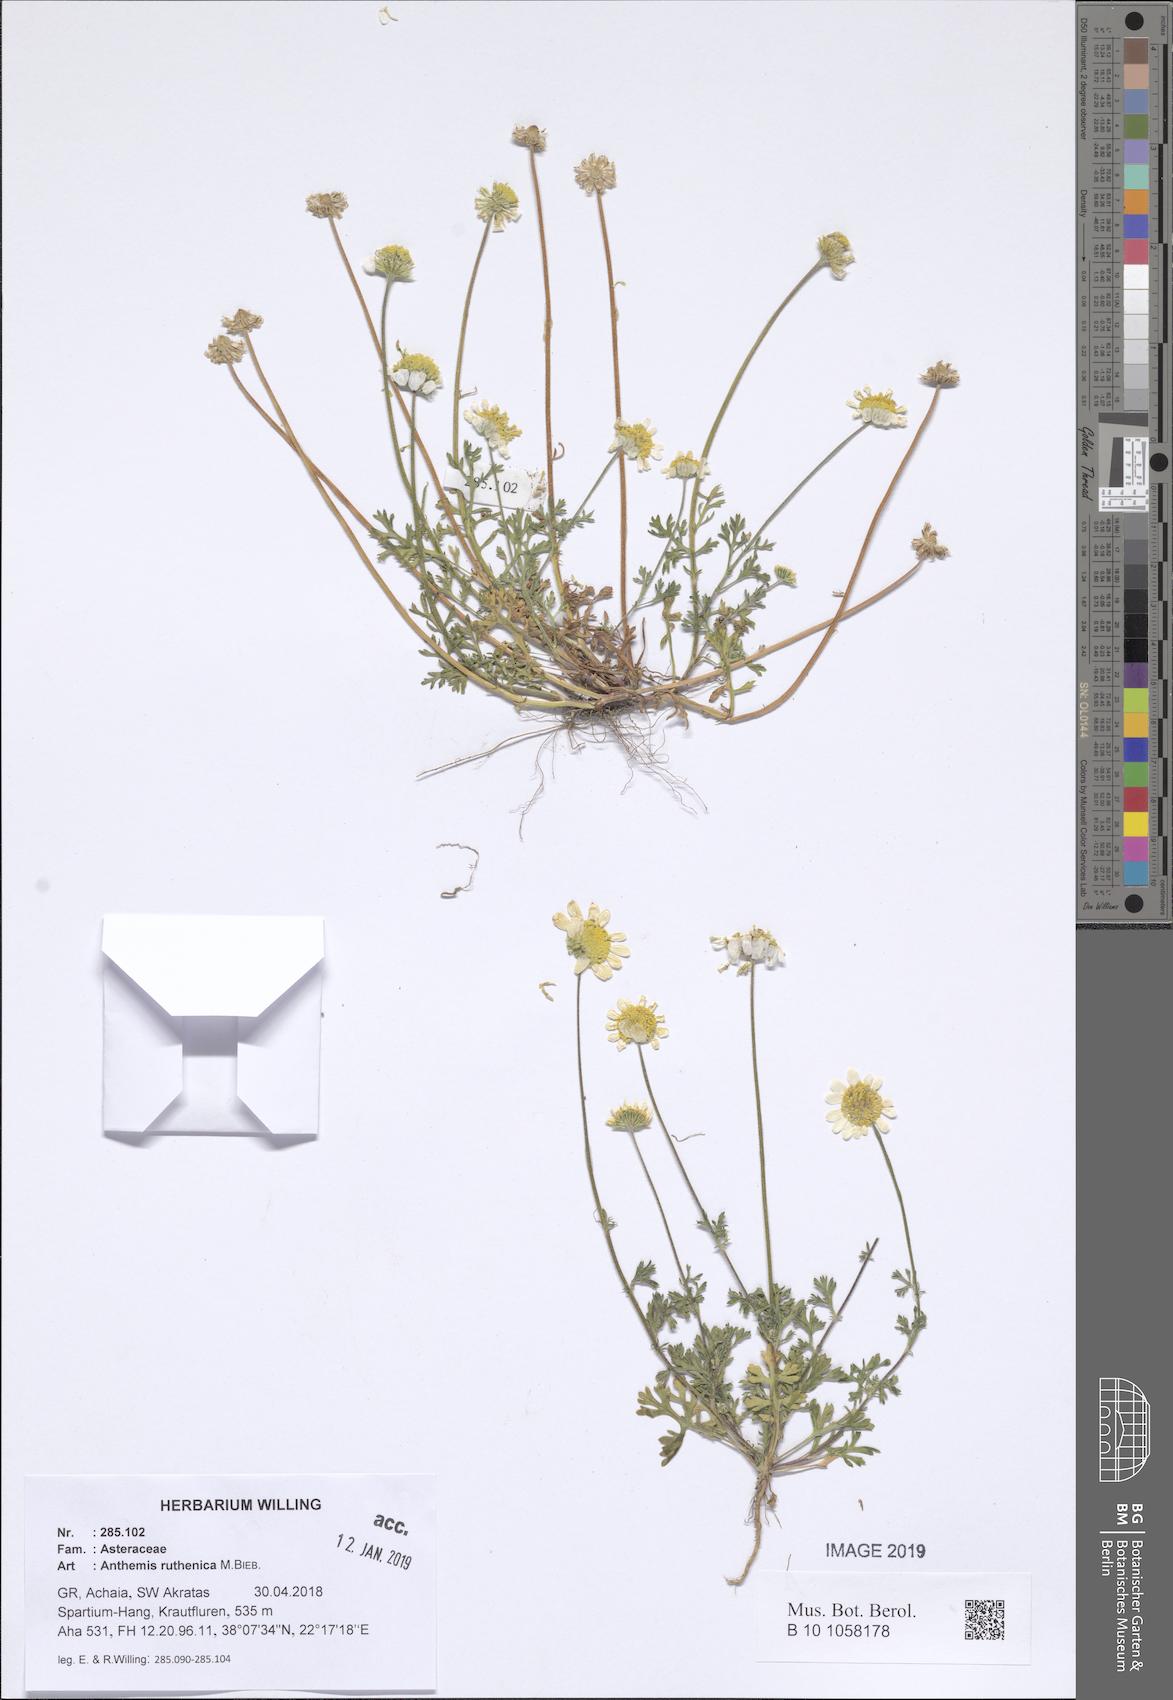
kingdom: Plantae
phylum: Tracheophyta
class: Magnoliopsida
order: Asterales
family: Asteraceae
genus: Anthemis
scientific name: Anthemis ruthenica
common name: Eastern chamomile
